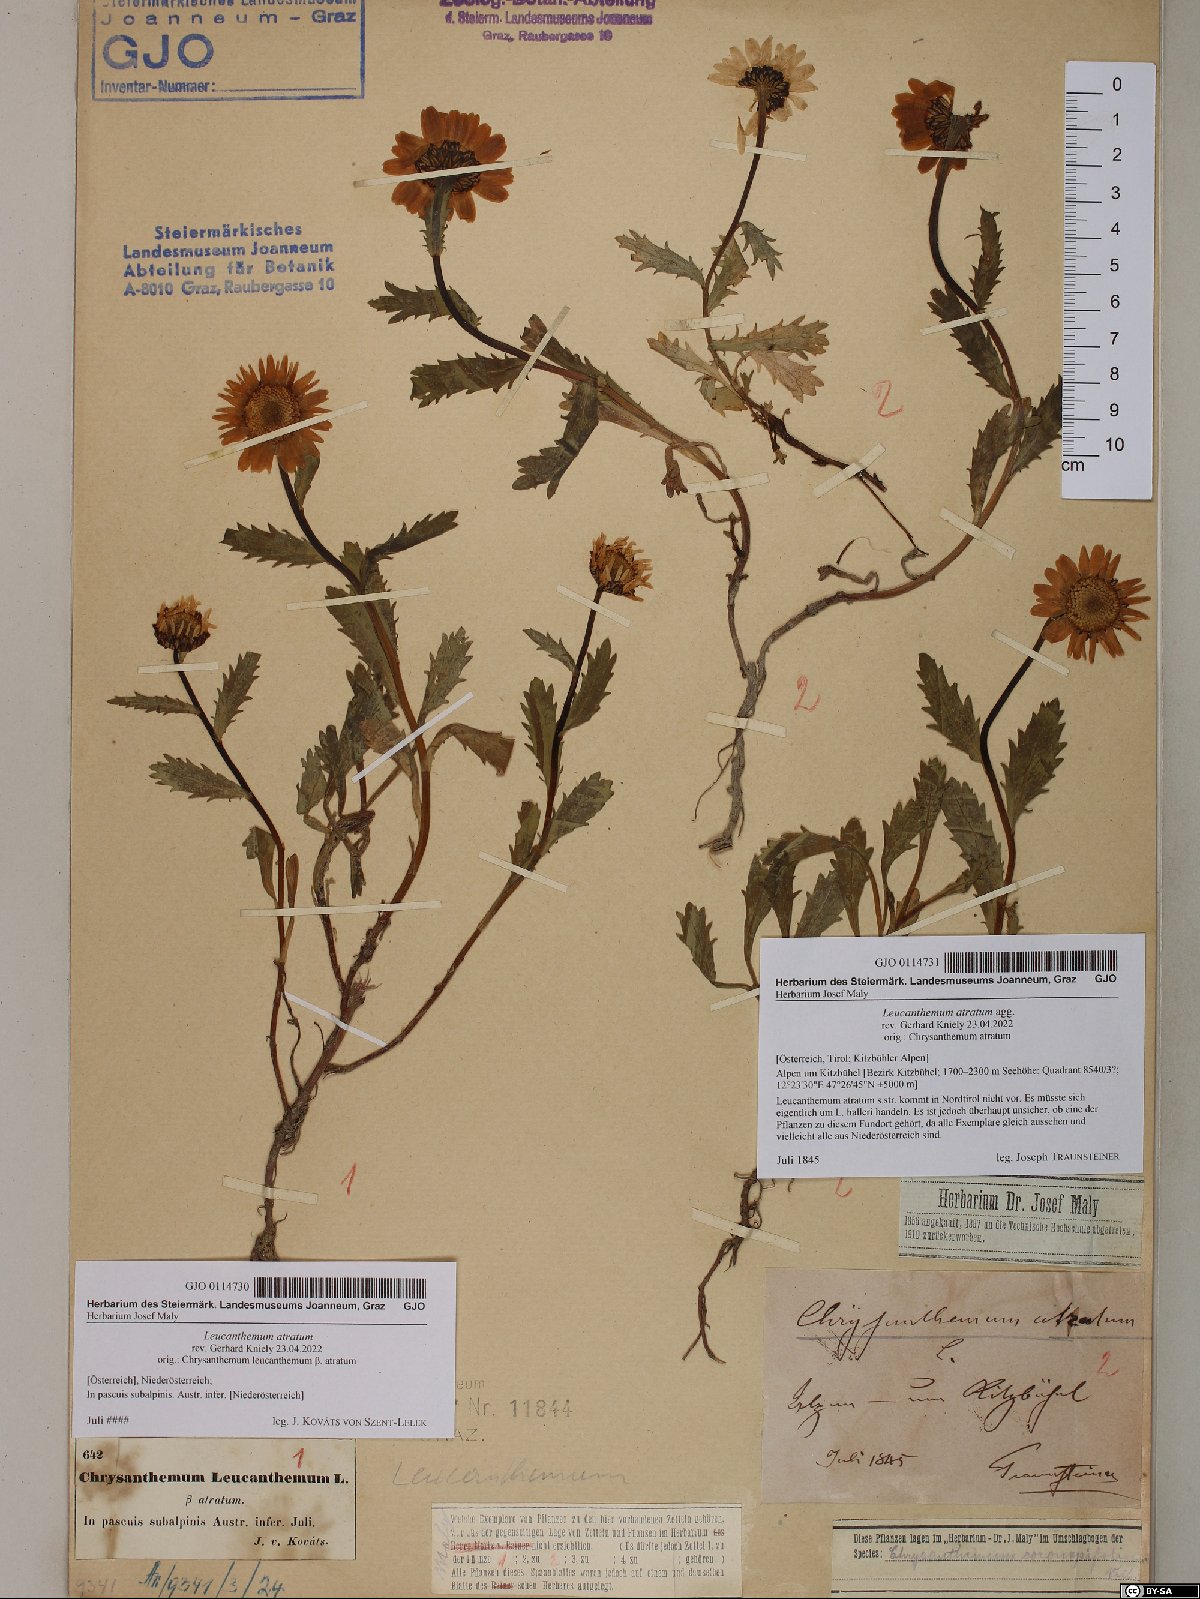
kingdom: Plantae
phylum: Tracheophyta
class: Magnoliopsida
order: Asterales
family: Asteraceae
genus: Leucanthemum
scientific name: Leucanthemum atratum
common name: Saw-leaved moon-daisy
